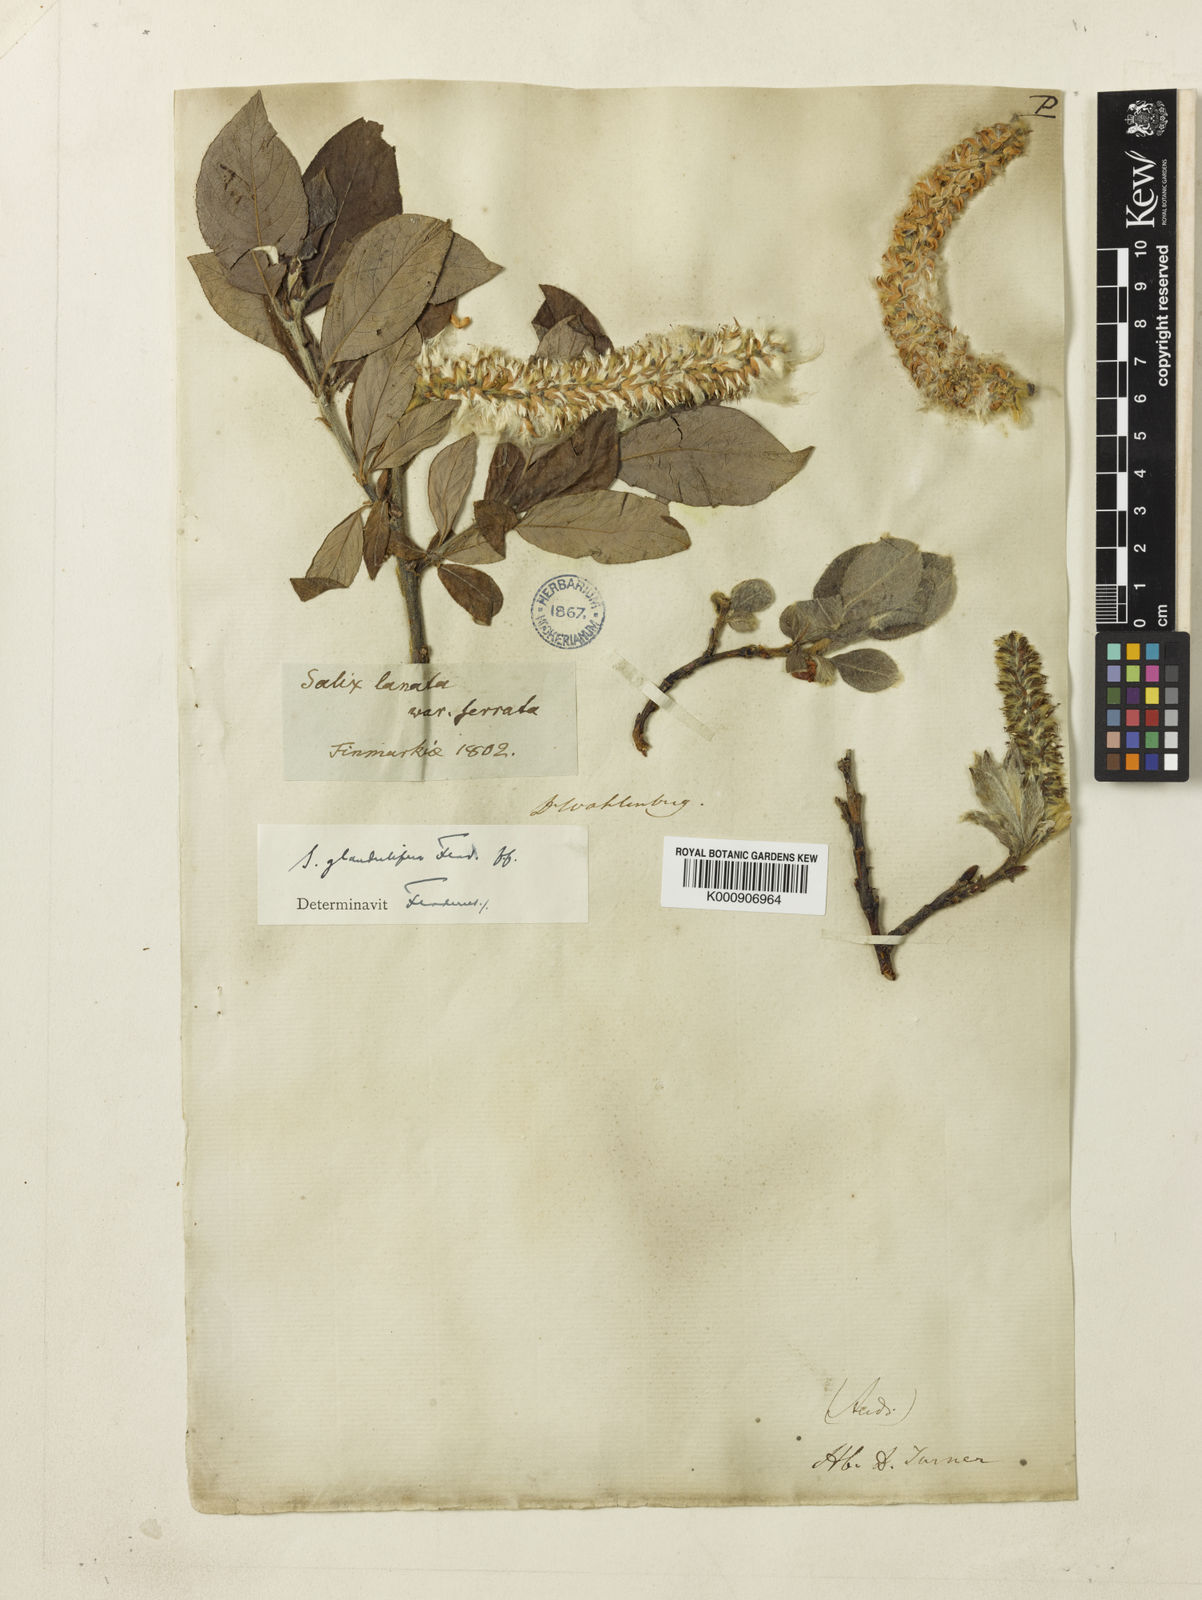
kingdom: Plantae
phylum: Tracheophyta
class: Magnoliopsida
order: Malpighiales
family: Salicaceae
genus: Salix
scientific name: Salix lanata
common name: Woolly willow
